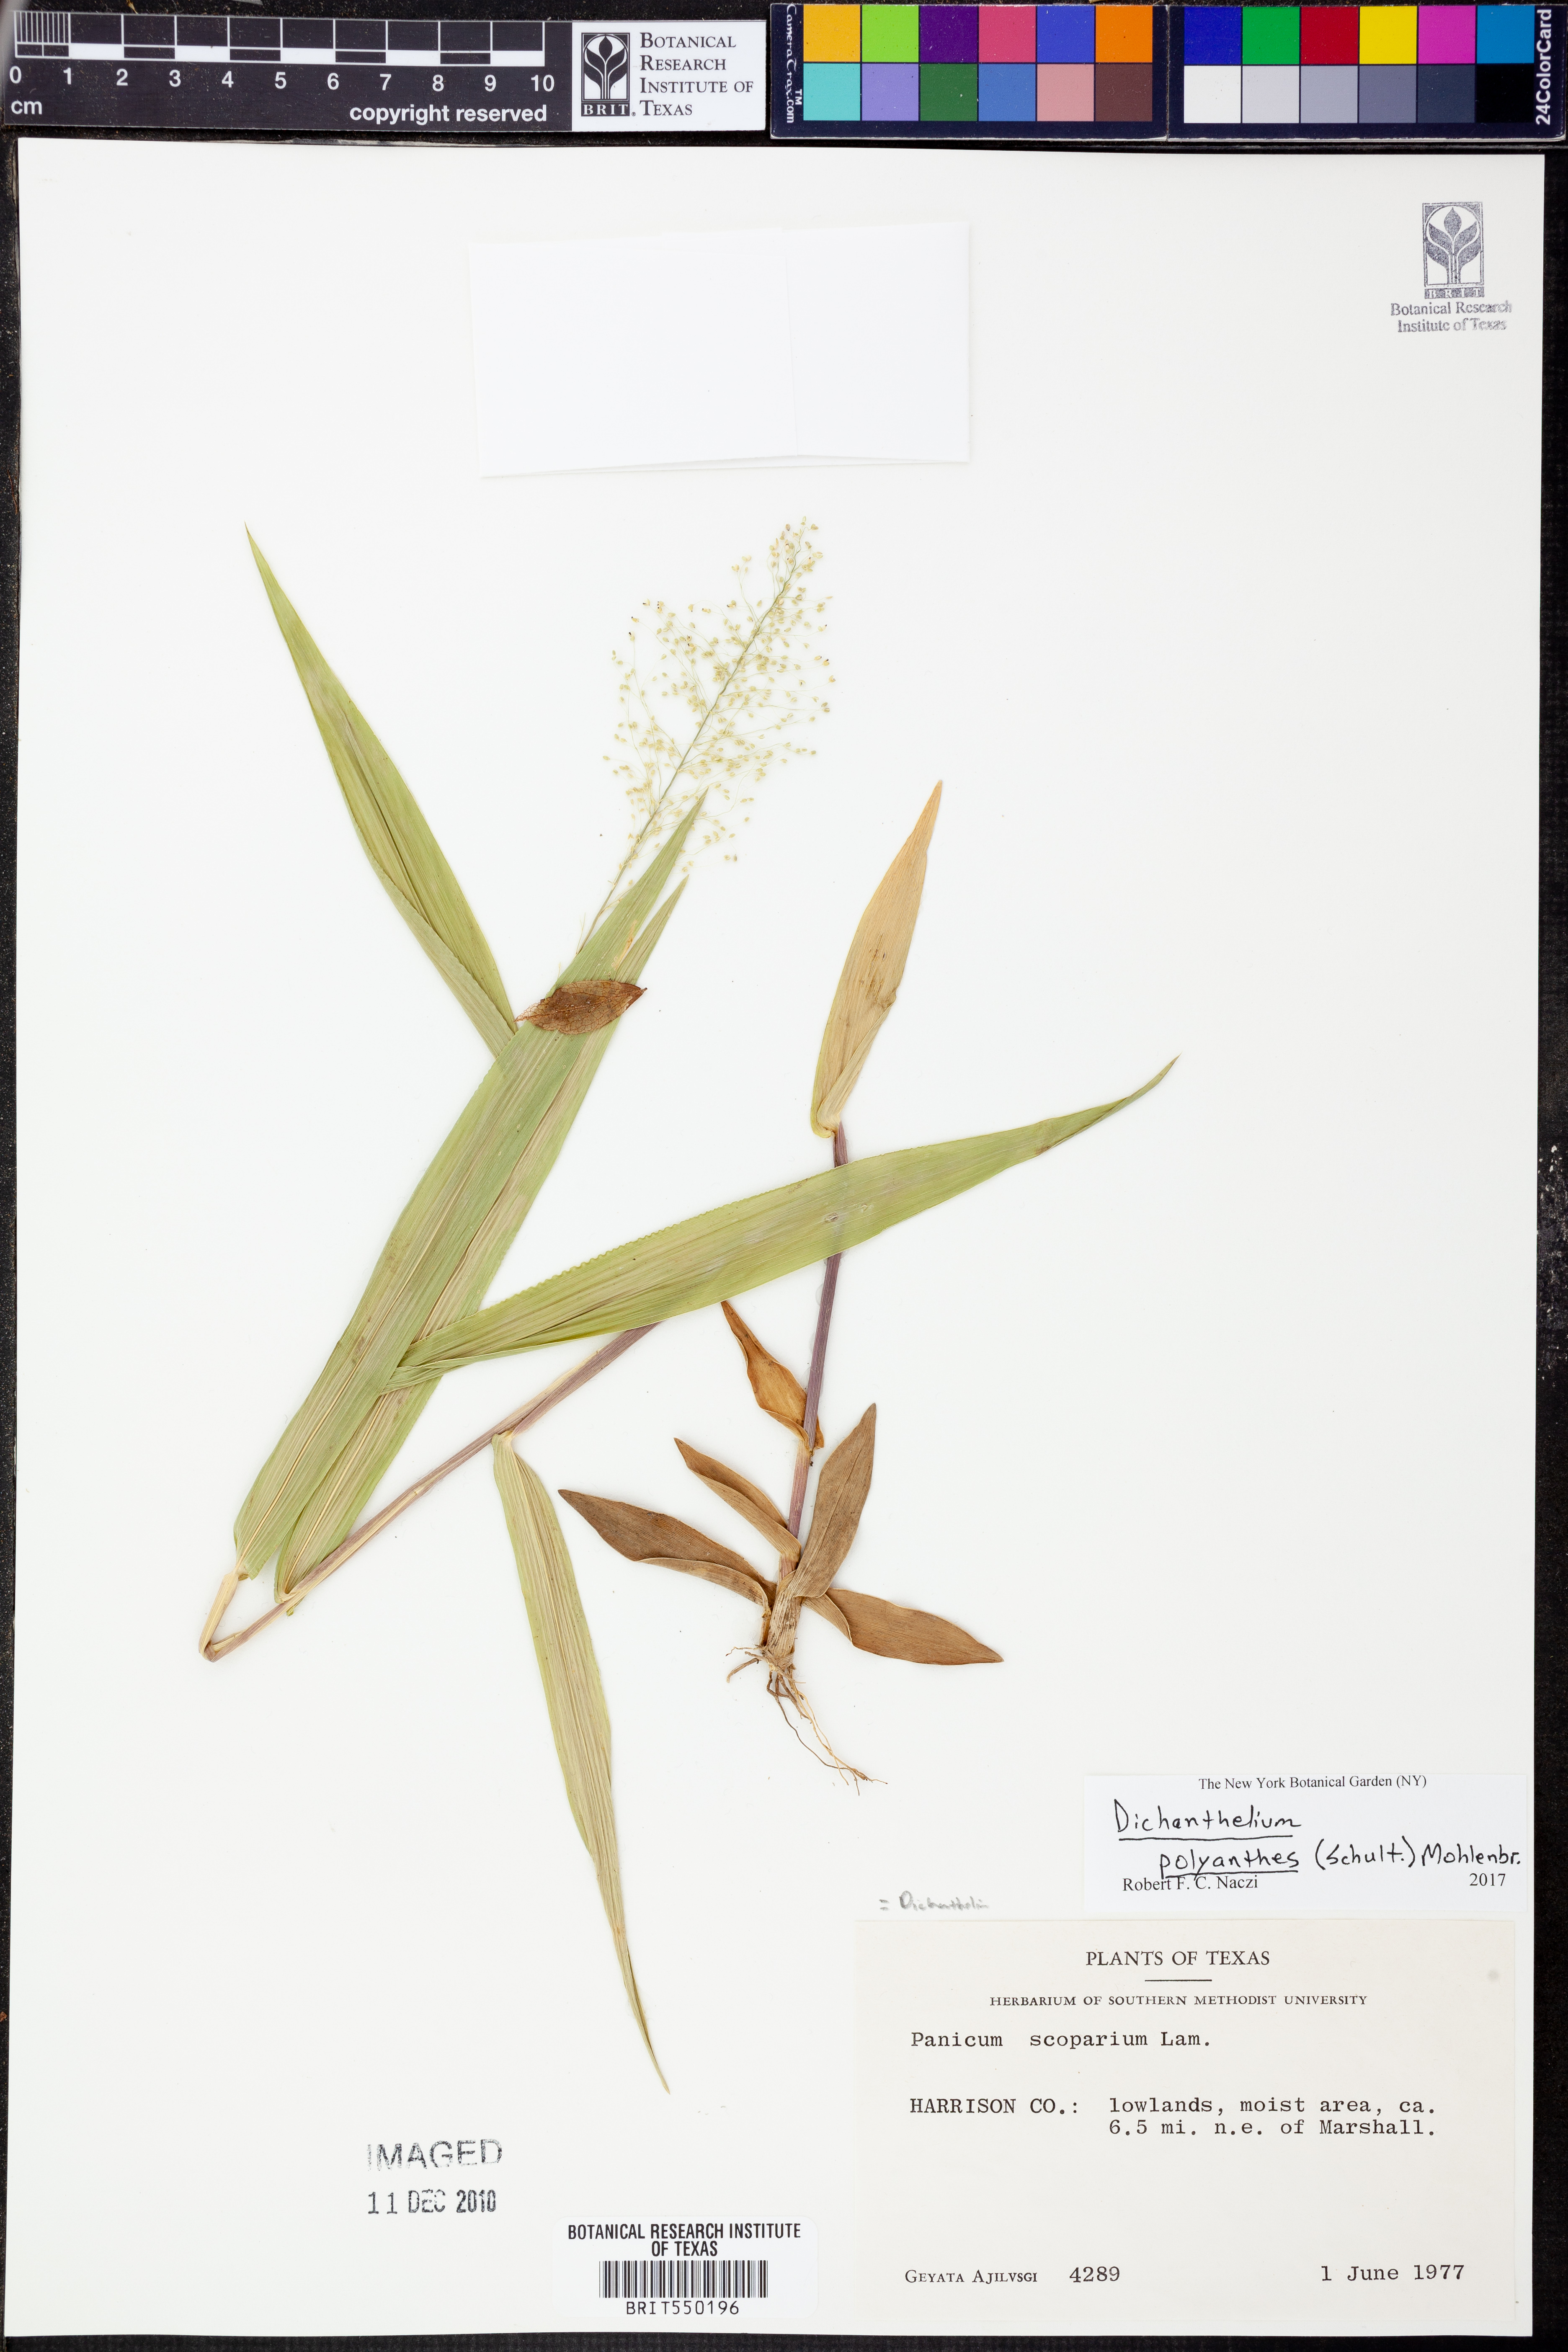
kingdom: Plantae
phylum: Tracheophyta
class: Liliopsida
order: Poales
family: Poaceae
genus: Dichanthelium
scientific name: Dichanthelium polyanthes
